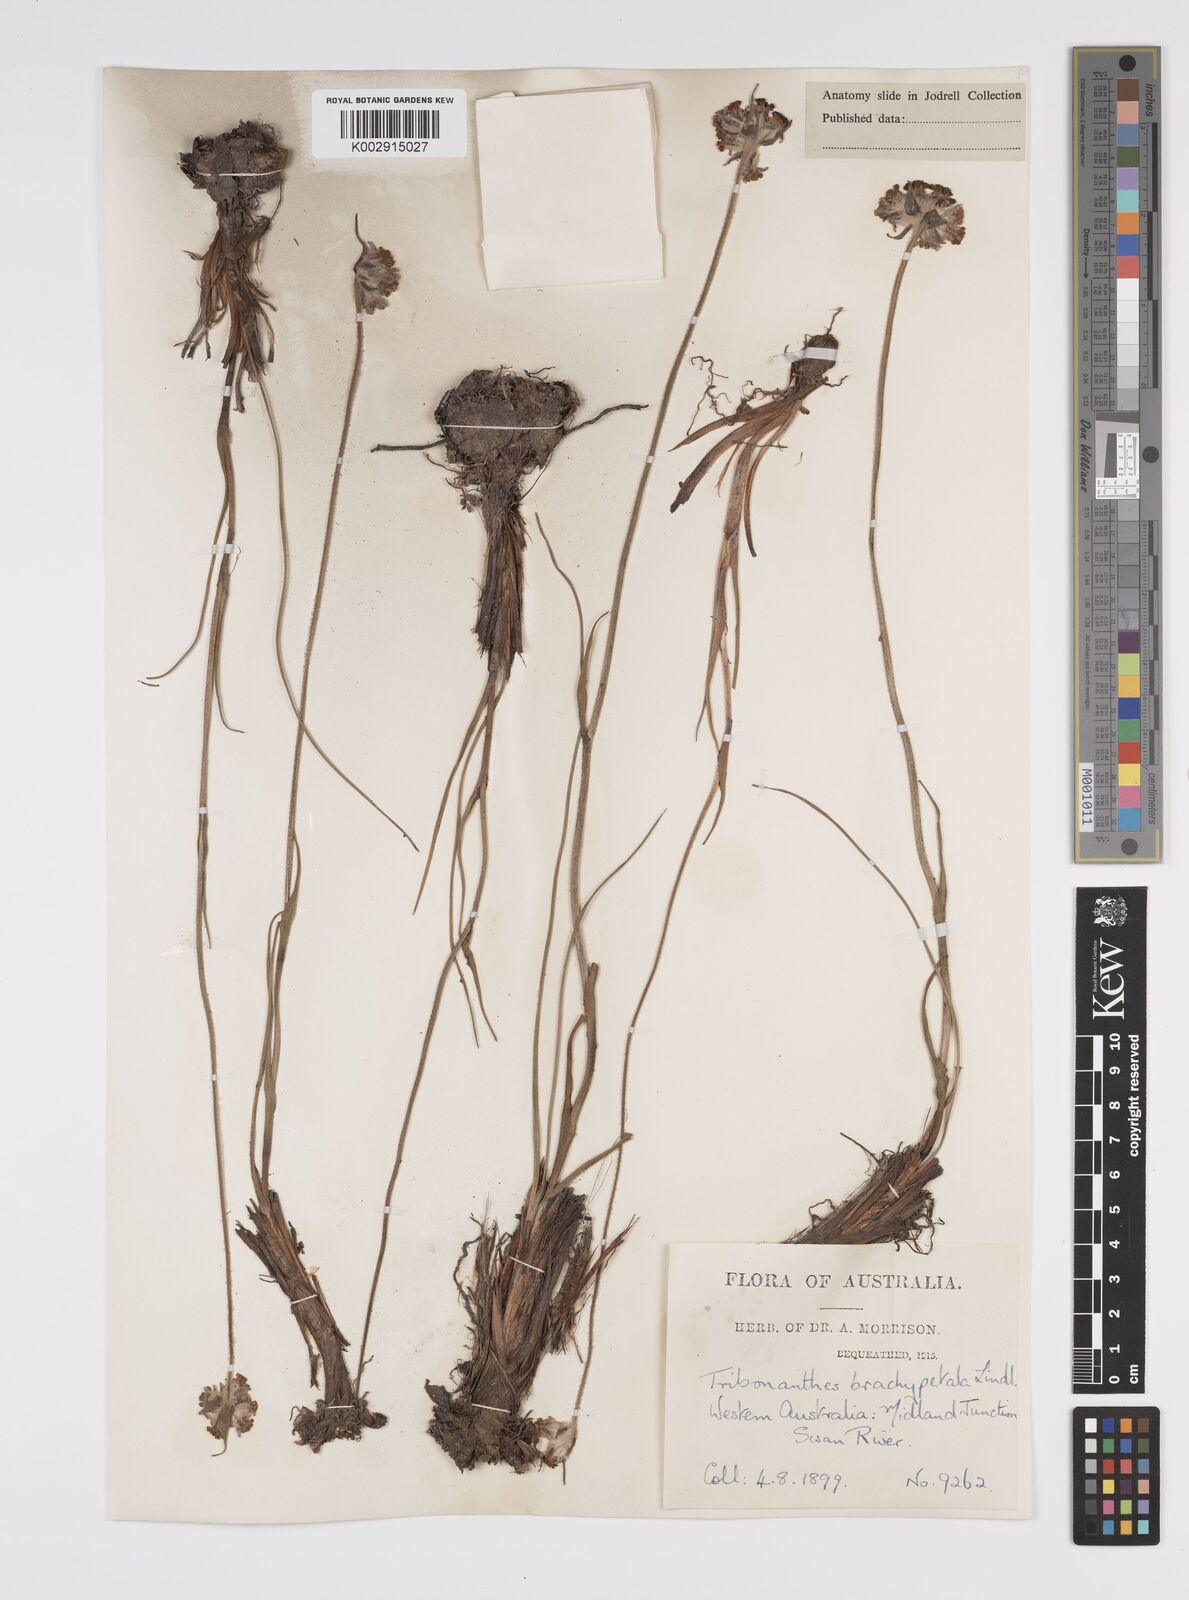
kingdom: Plantae
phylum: Tracheophyta
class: Liliopsida
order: Commelinales
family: Haemodoraceae
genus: Tribonanthes
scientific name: Tribonanthes brachypetala
